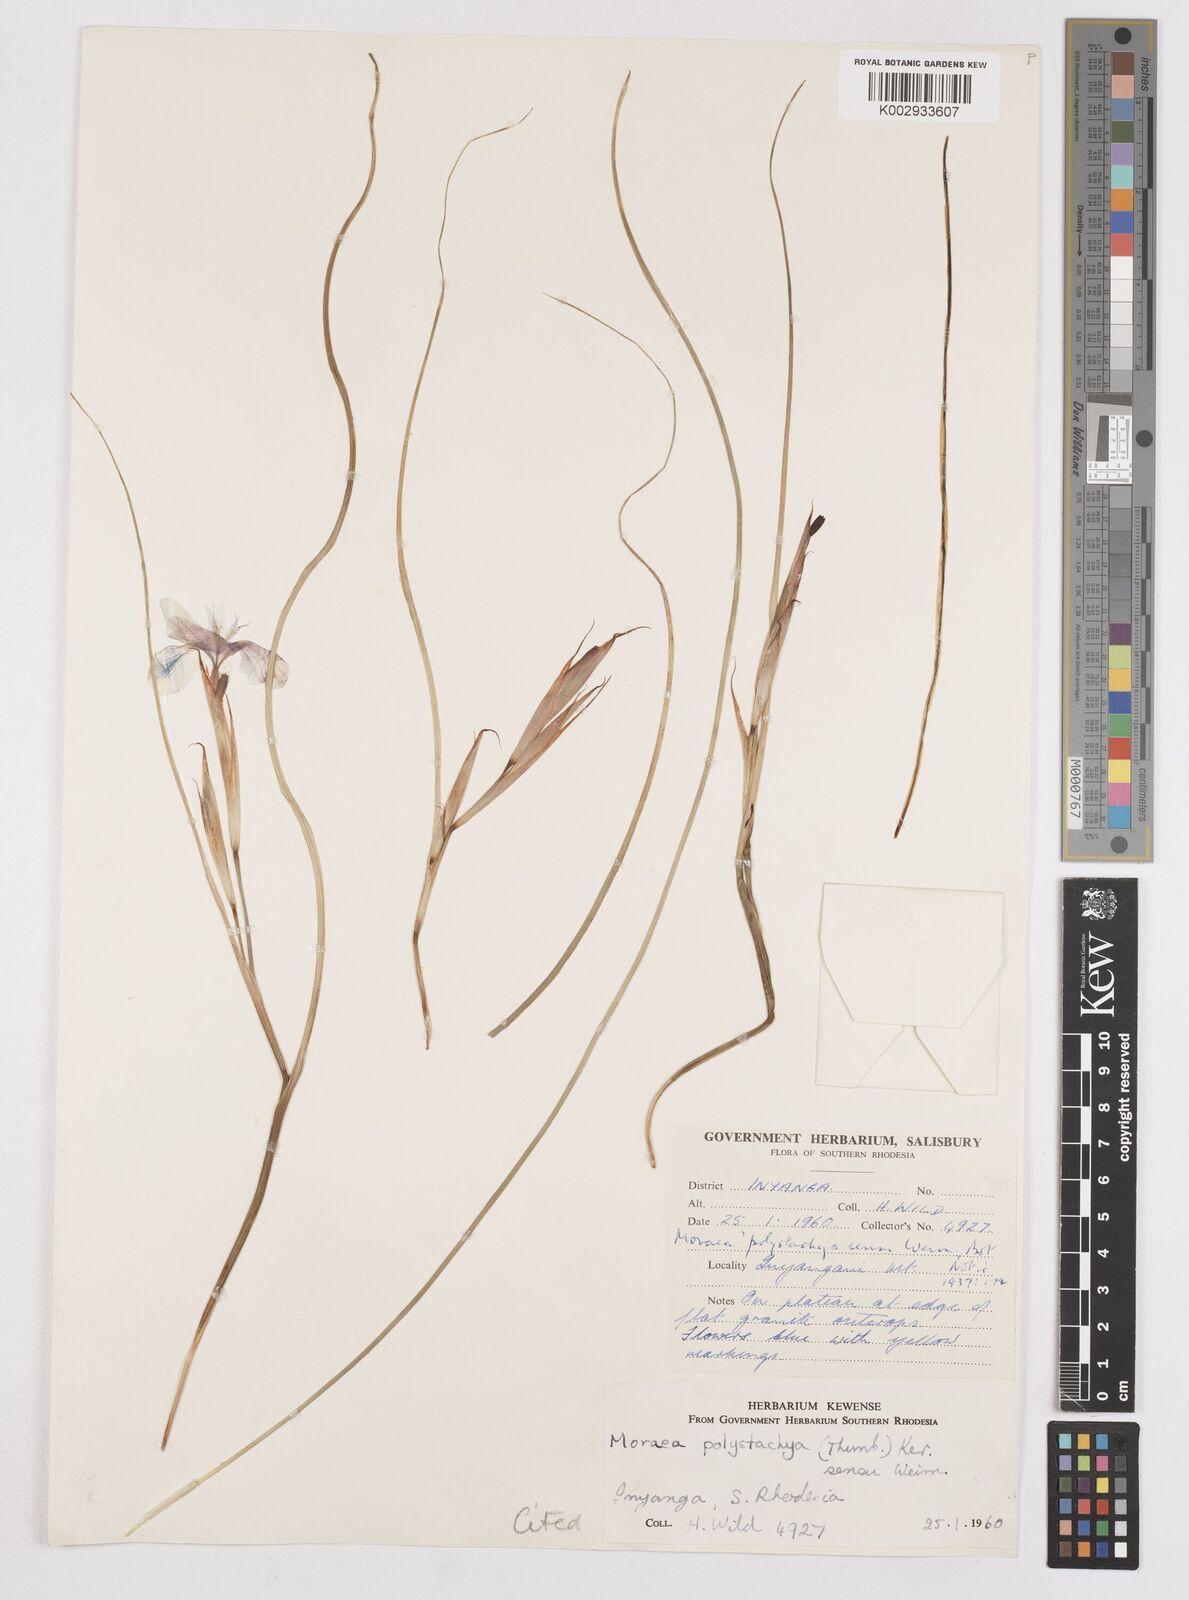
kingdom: Plantae
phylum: Tracheophyta
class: Liliopsida
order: Asparagales
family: Iridaceae
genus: Moraea
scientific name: Moraea carsonii
